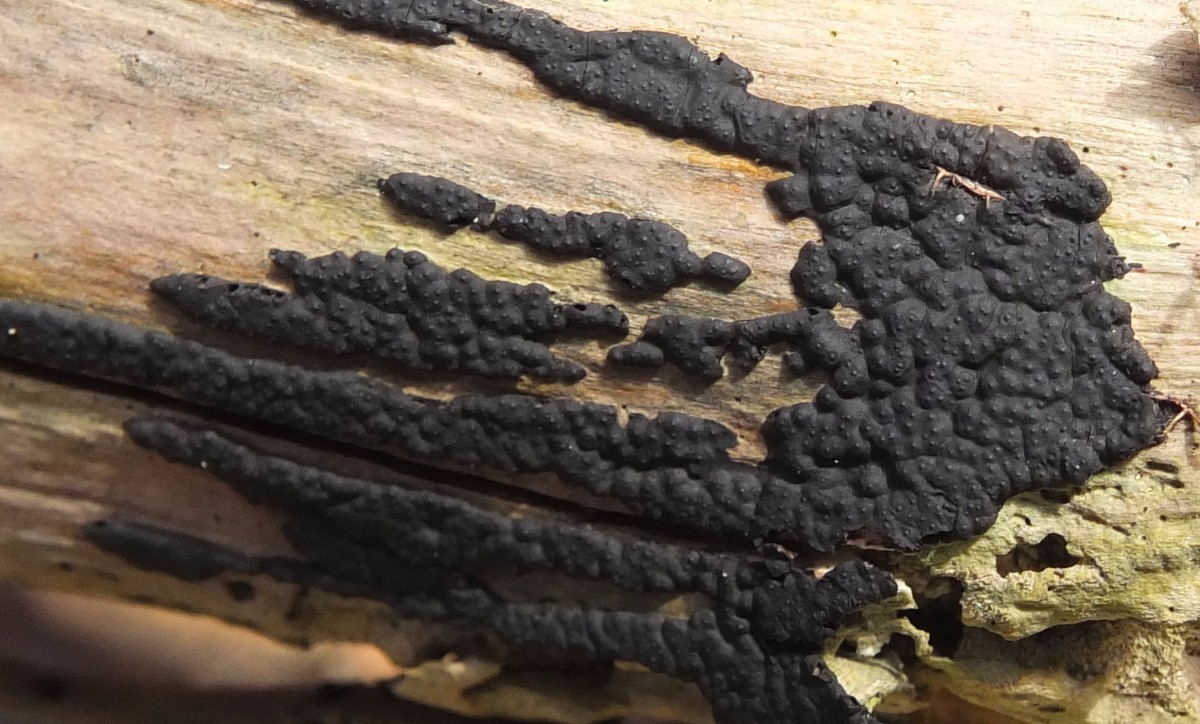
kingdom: Fungi
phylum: Ascomycota
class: Sordariomycetes
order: Xylariales
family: Xylariaceae
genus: Nemania
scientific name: Nemania
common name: kuldyne
